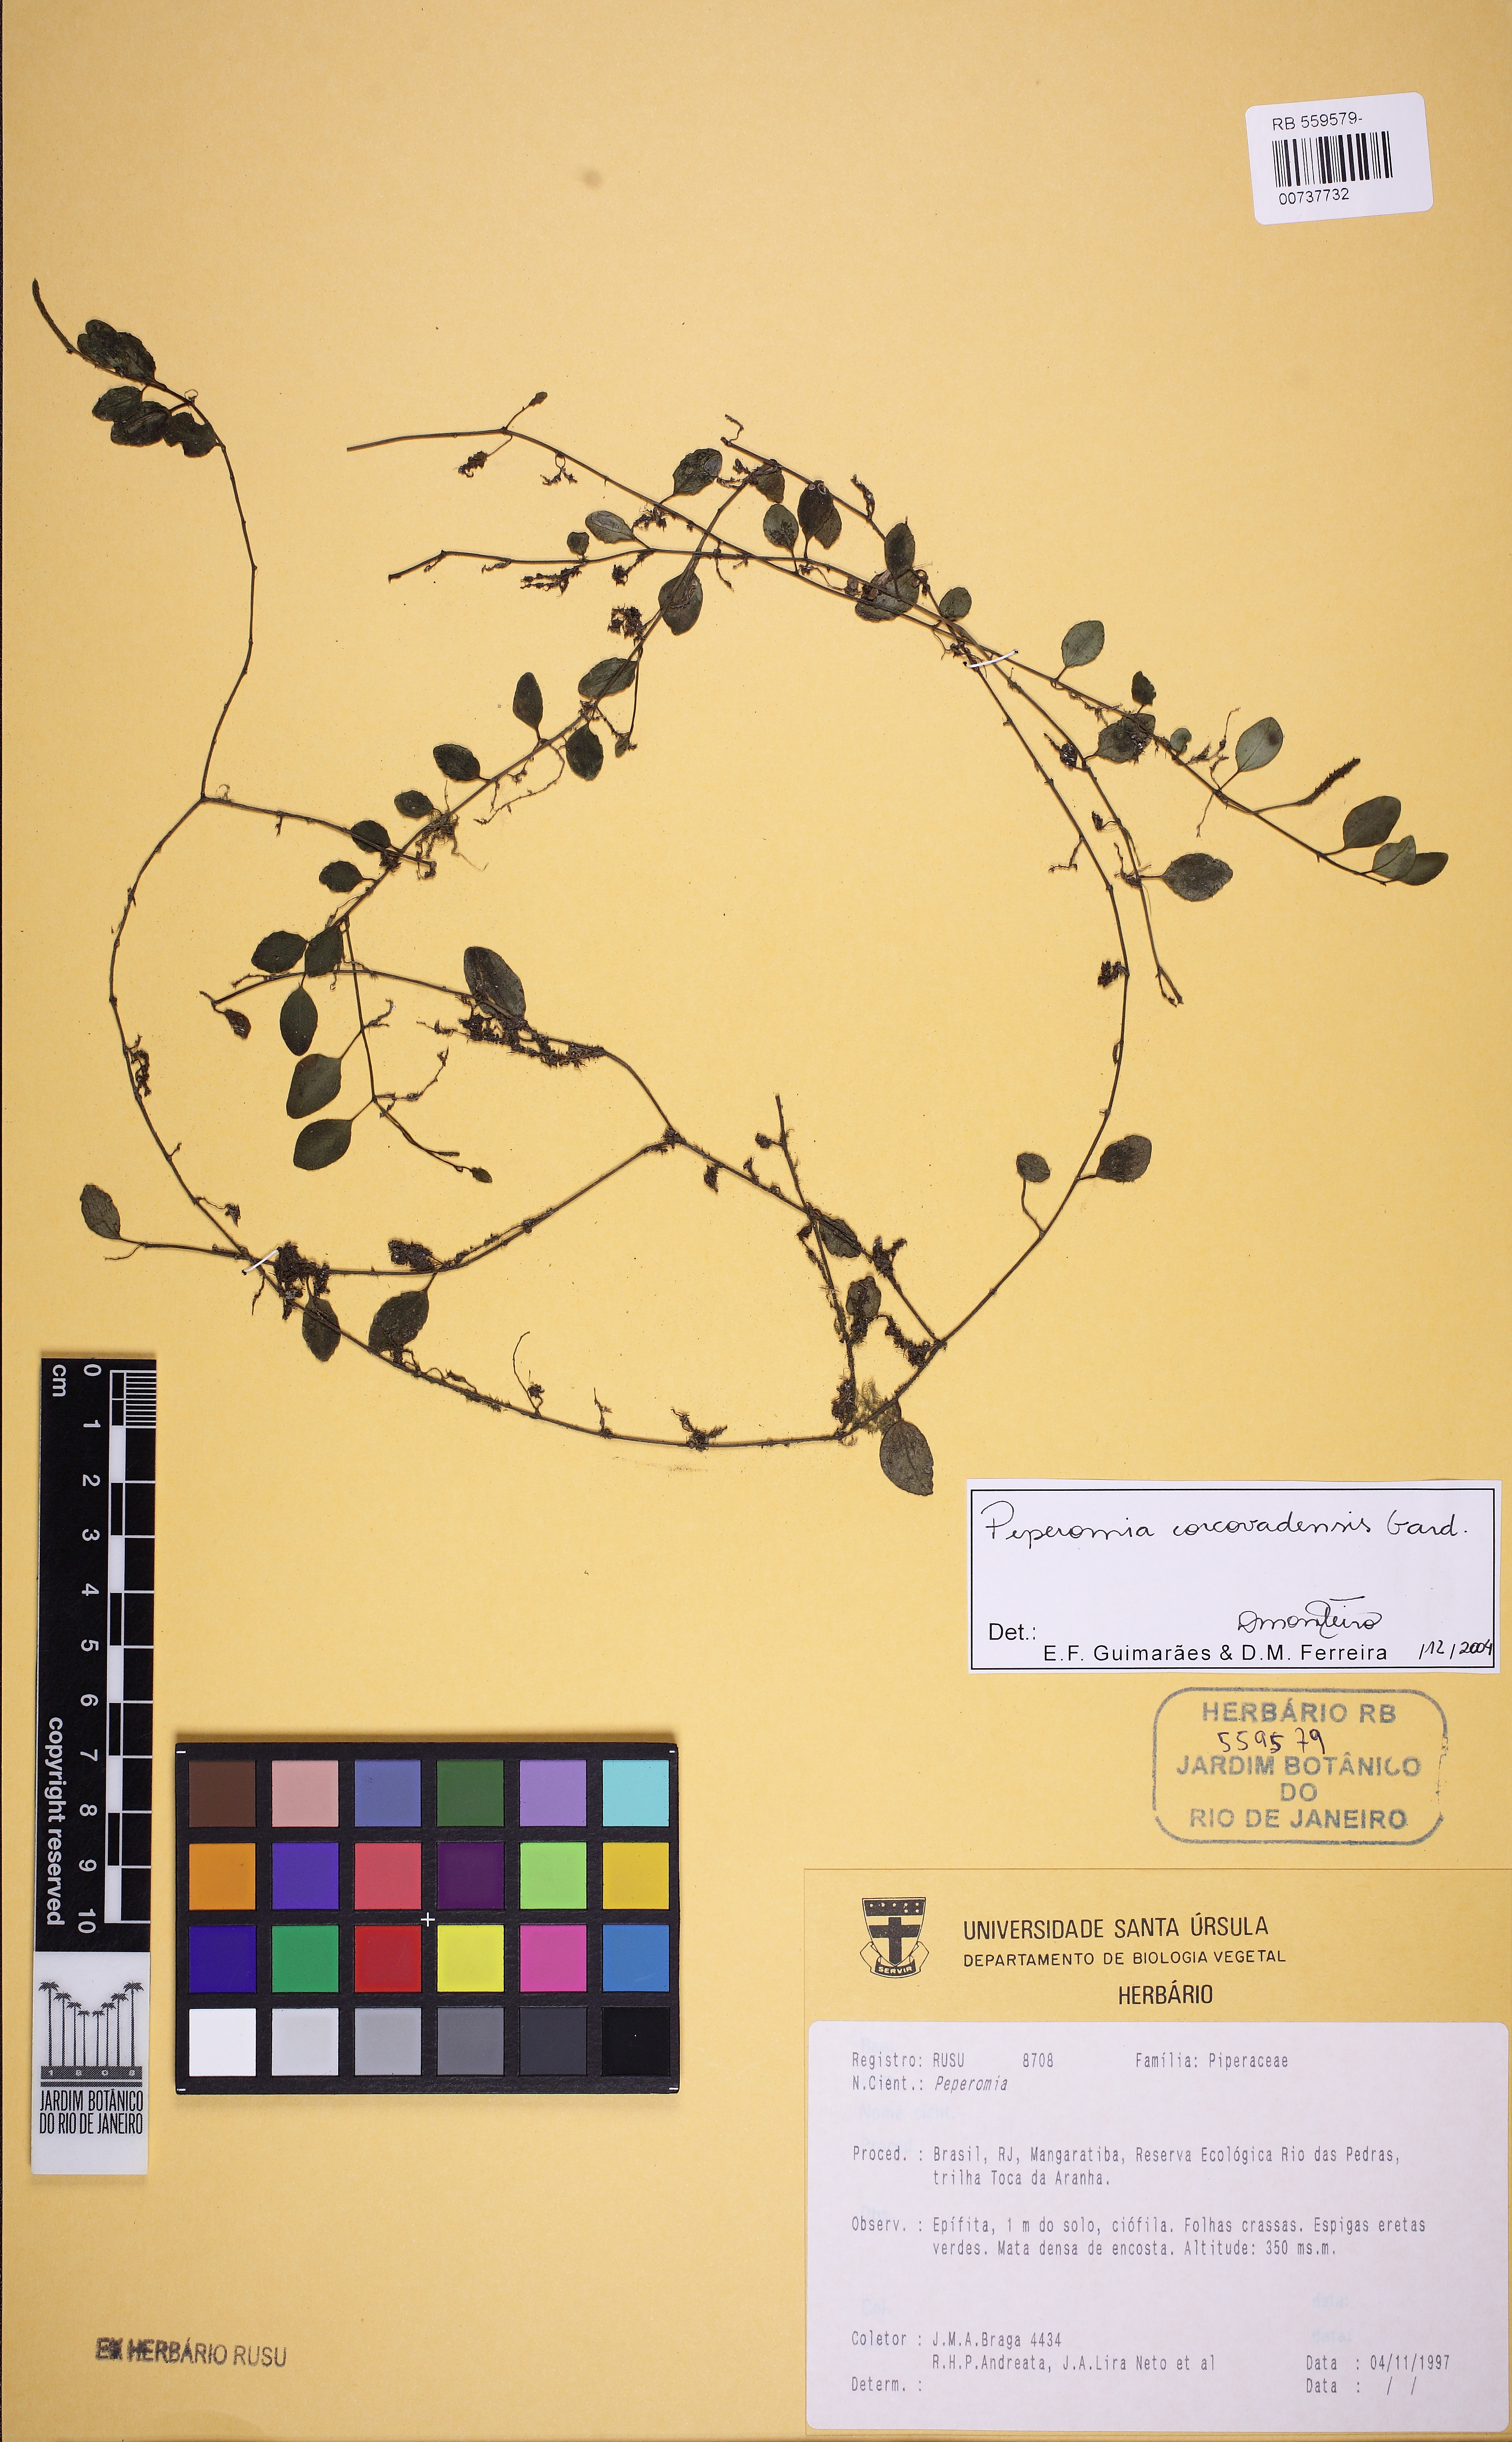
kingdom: Plantae
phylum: Tracheophyta
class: Magnoliopsida
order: Piperales
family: Piperaceae
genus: Peperomia
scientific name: Peperomia
